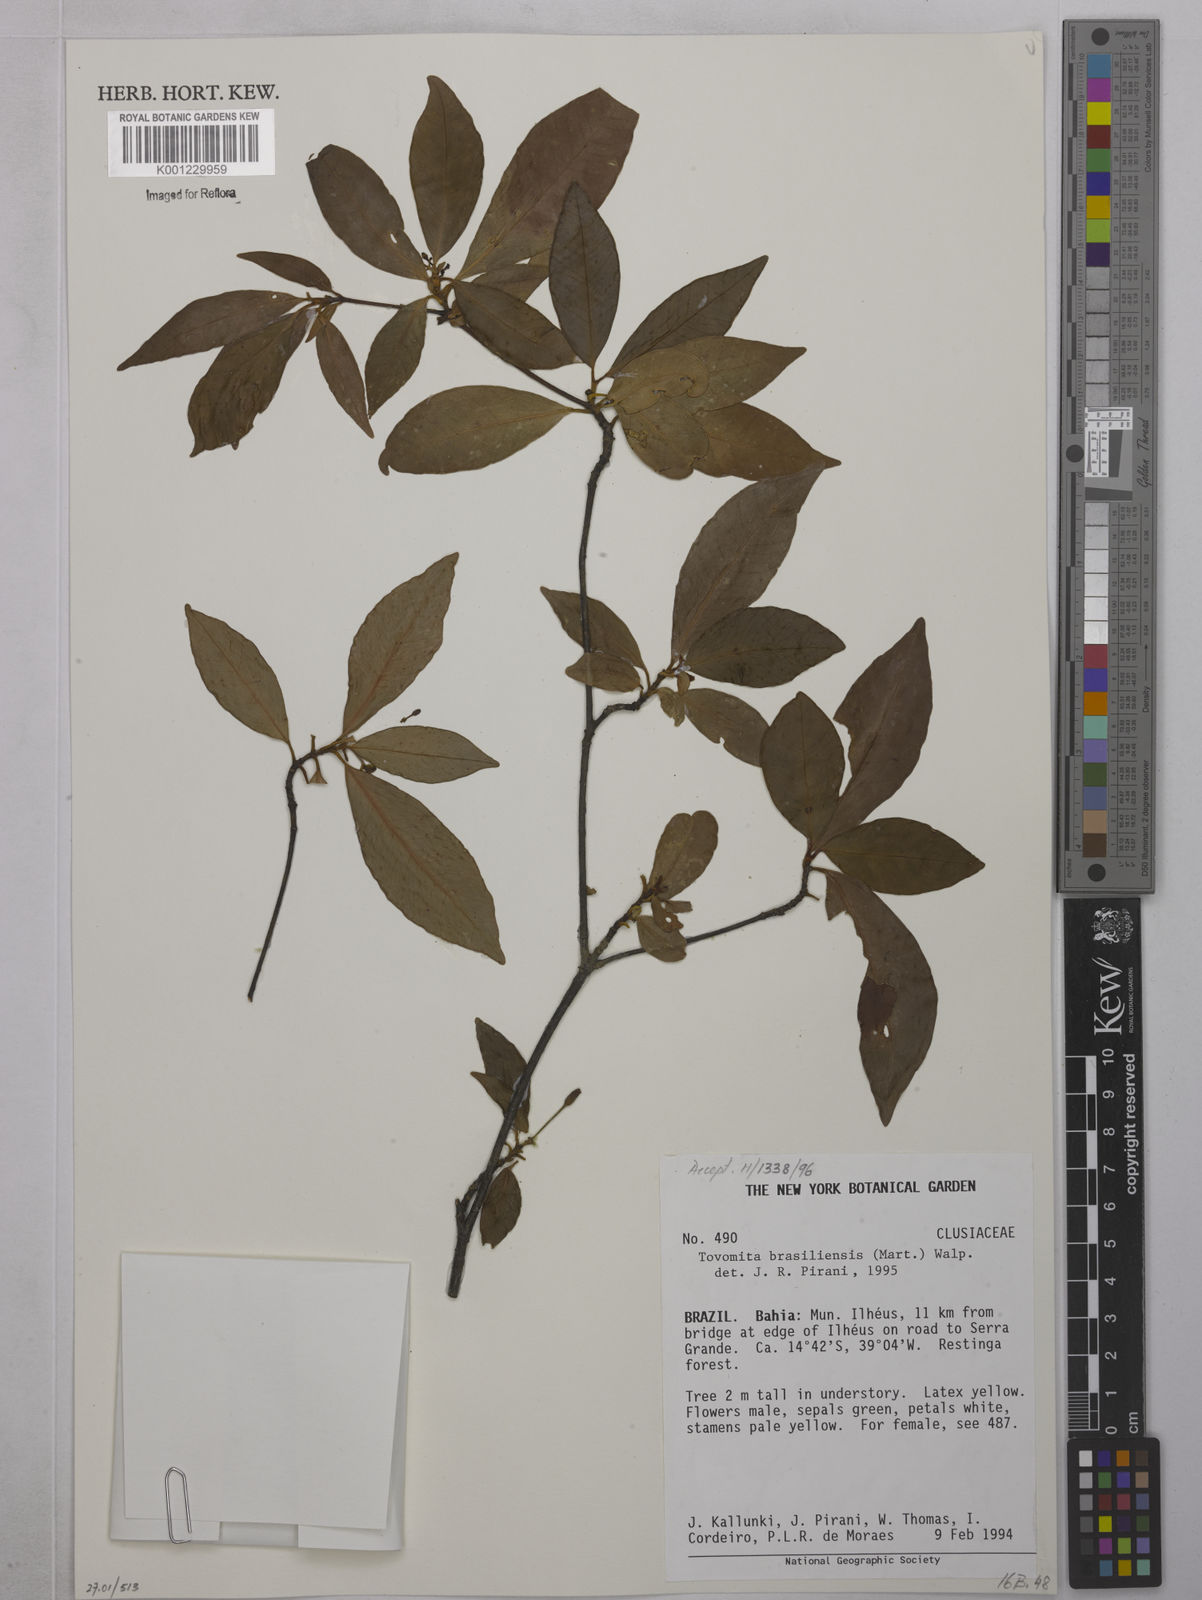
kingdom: Plantae
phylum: Tracheophyta
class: Magnoliopsida
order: Malpighiales
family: Clusiaceae
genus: Tovomita
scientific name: Tovomita
